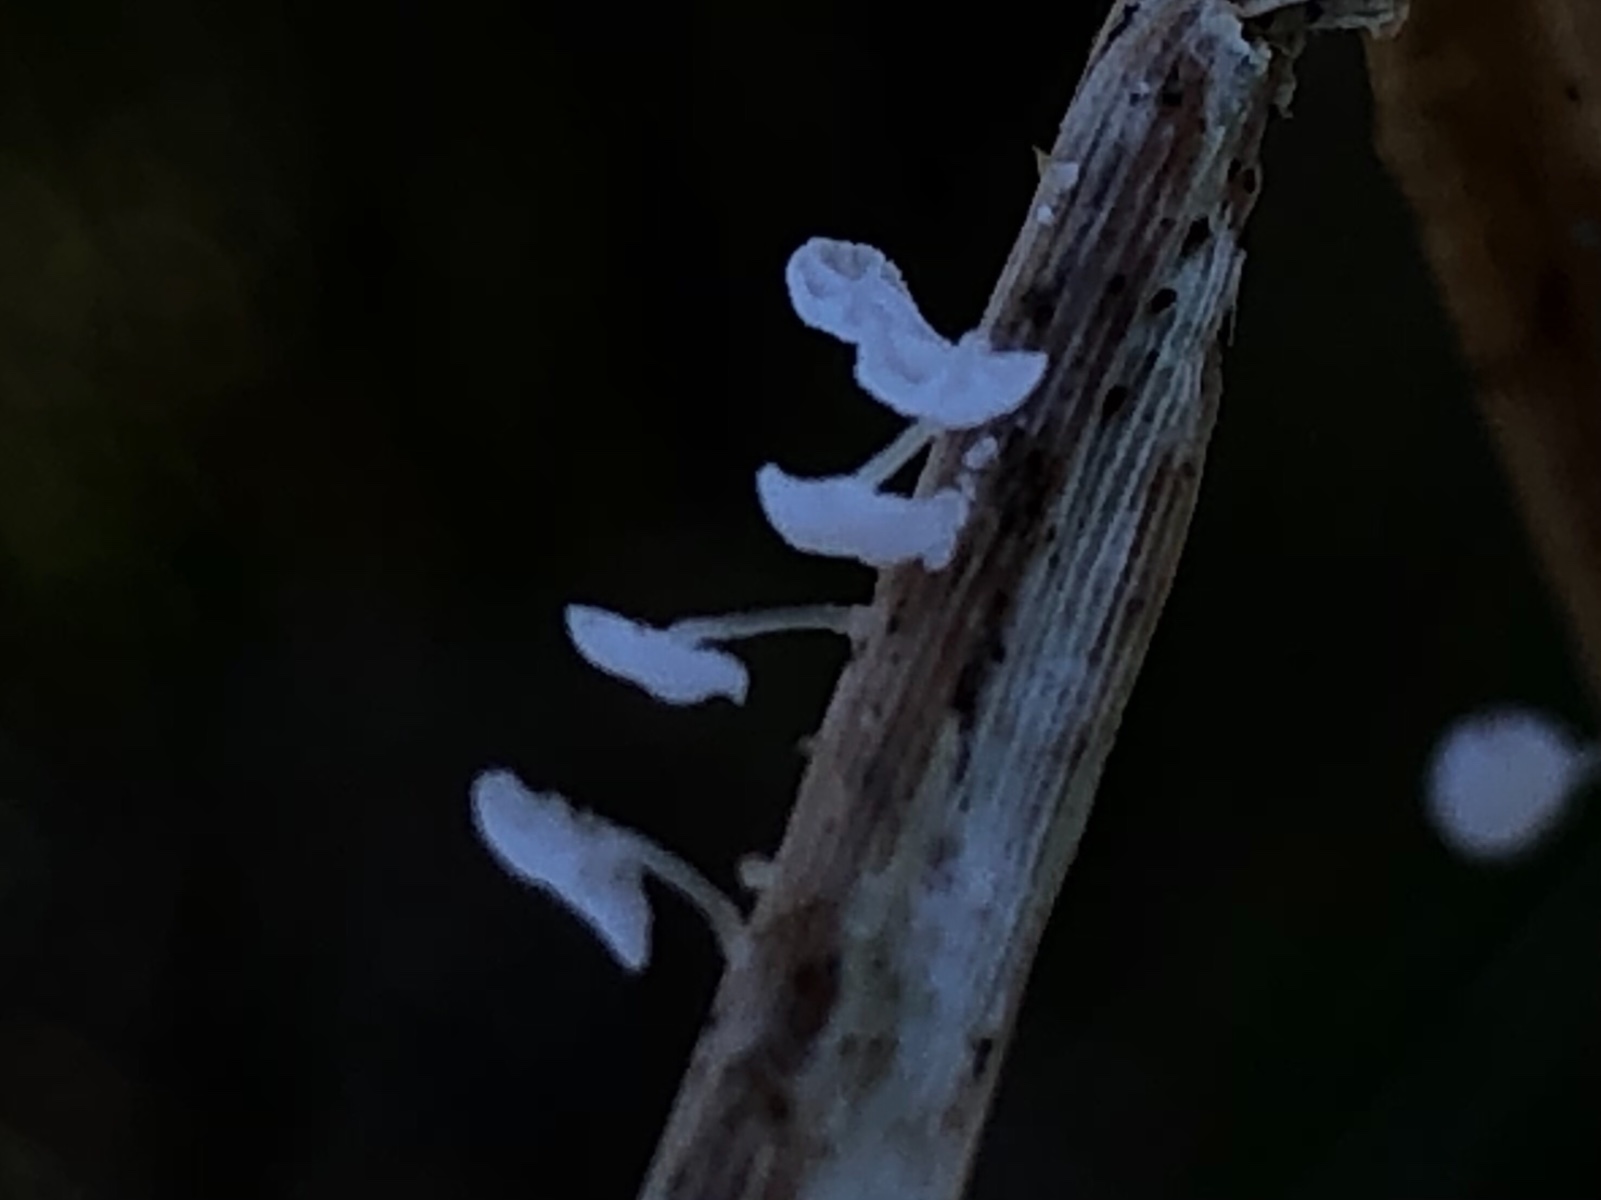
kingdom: Fungi
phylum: Basidiomycota
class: Agaricomycetes
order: Agaricales
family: Mycenaceae
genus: Resinomycena
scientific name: Resinomycena saccharifera
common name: sukkerhat
